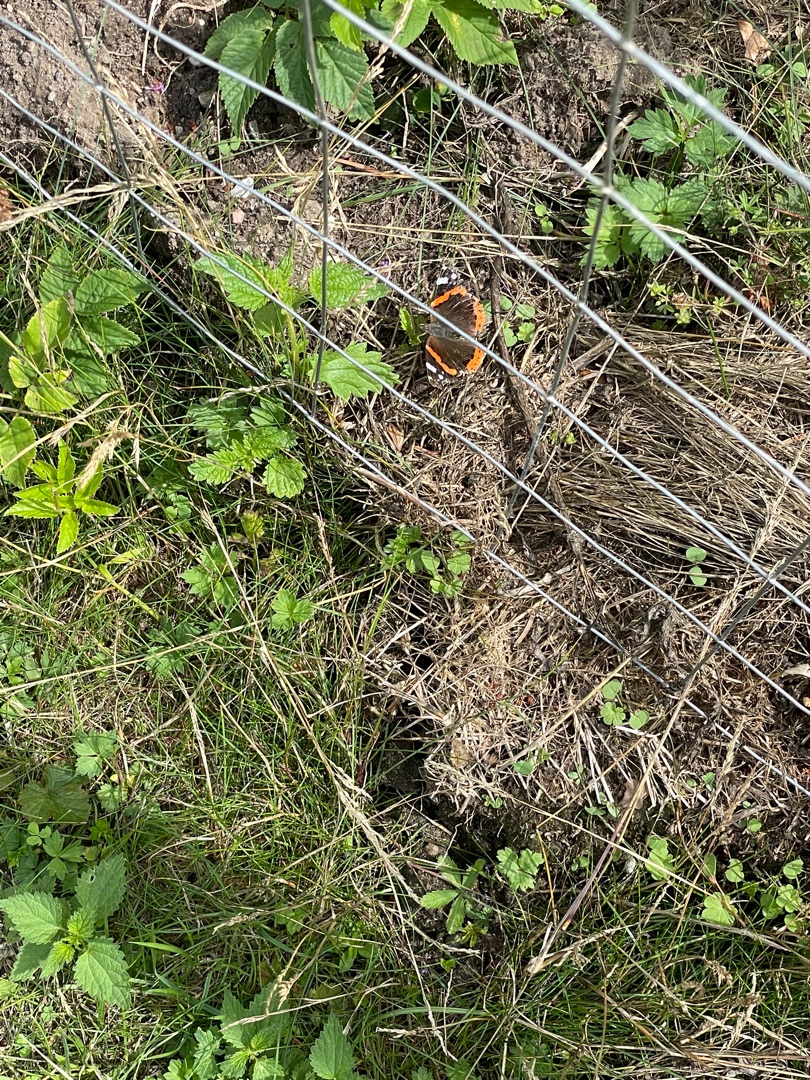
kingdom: Animalia
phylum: Arthropoda
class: Insecta
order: Lepidoptera
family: Nymphalidae
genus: Vanessa
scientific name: Vanessa atalanta
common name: Admiral
